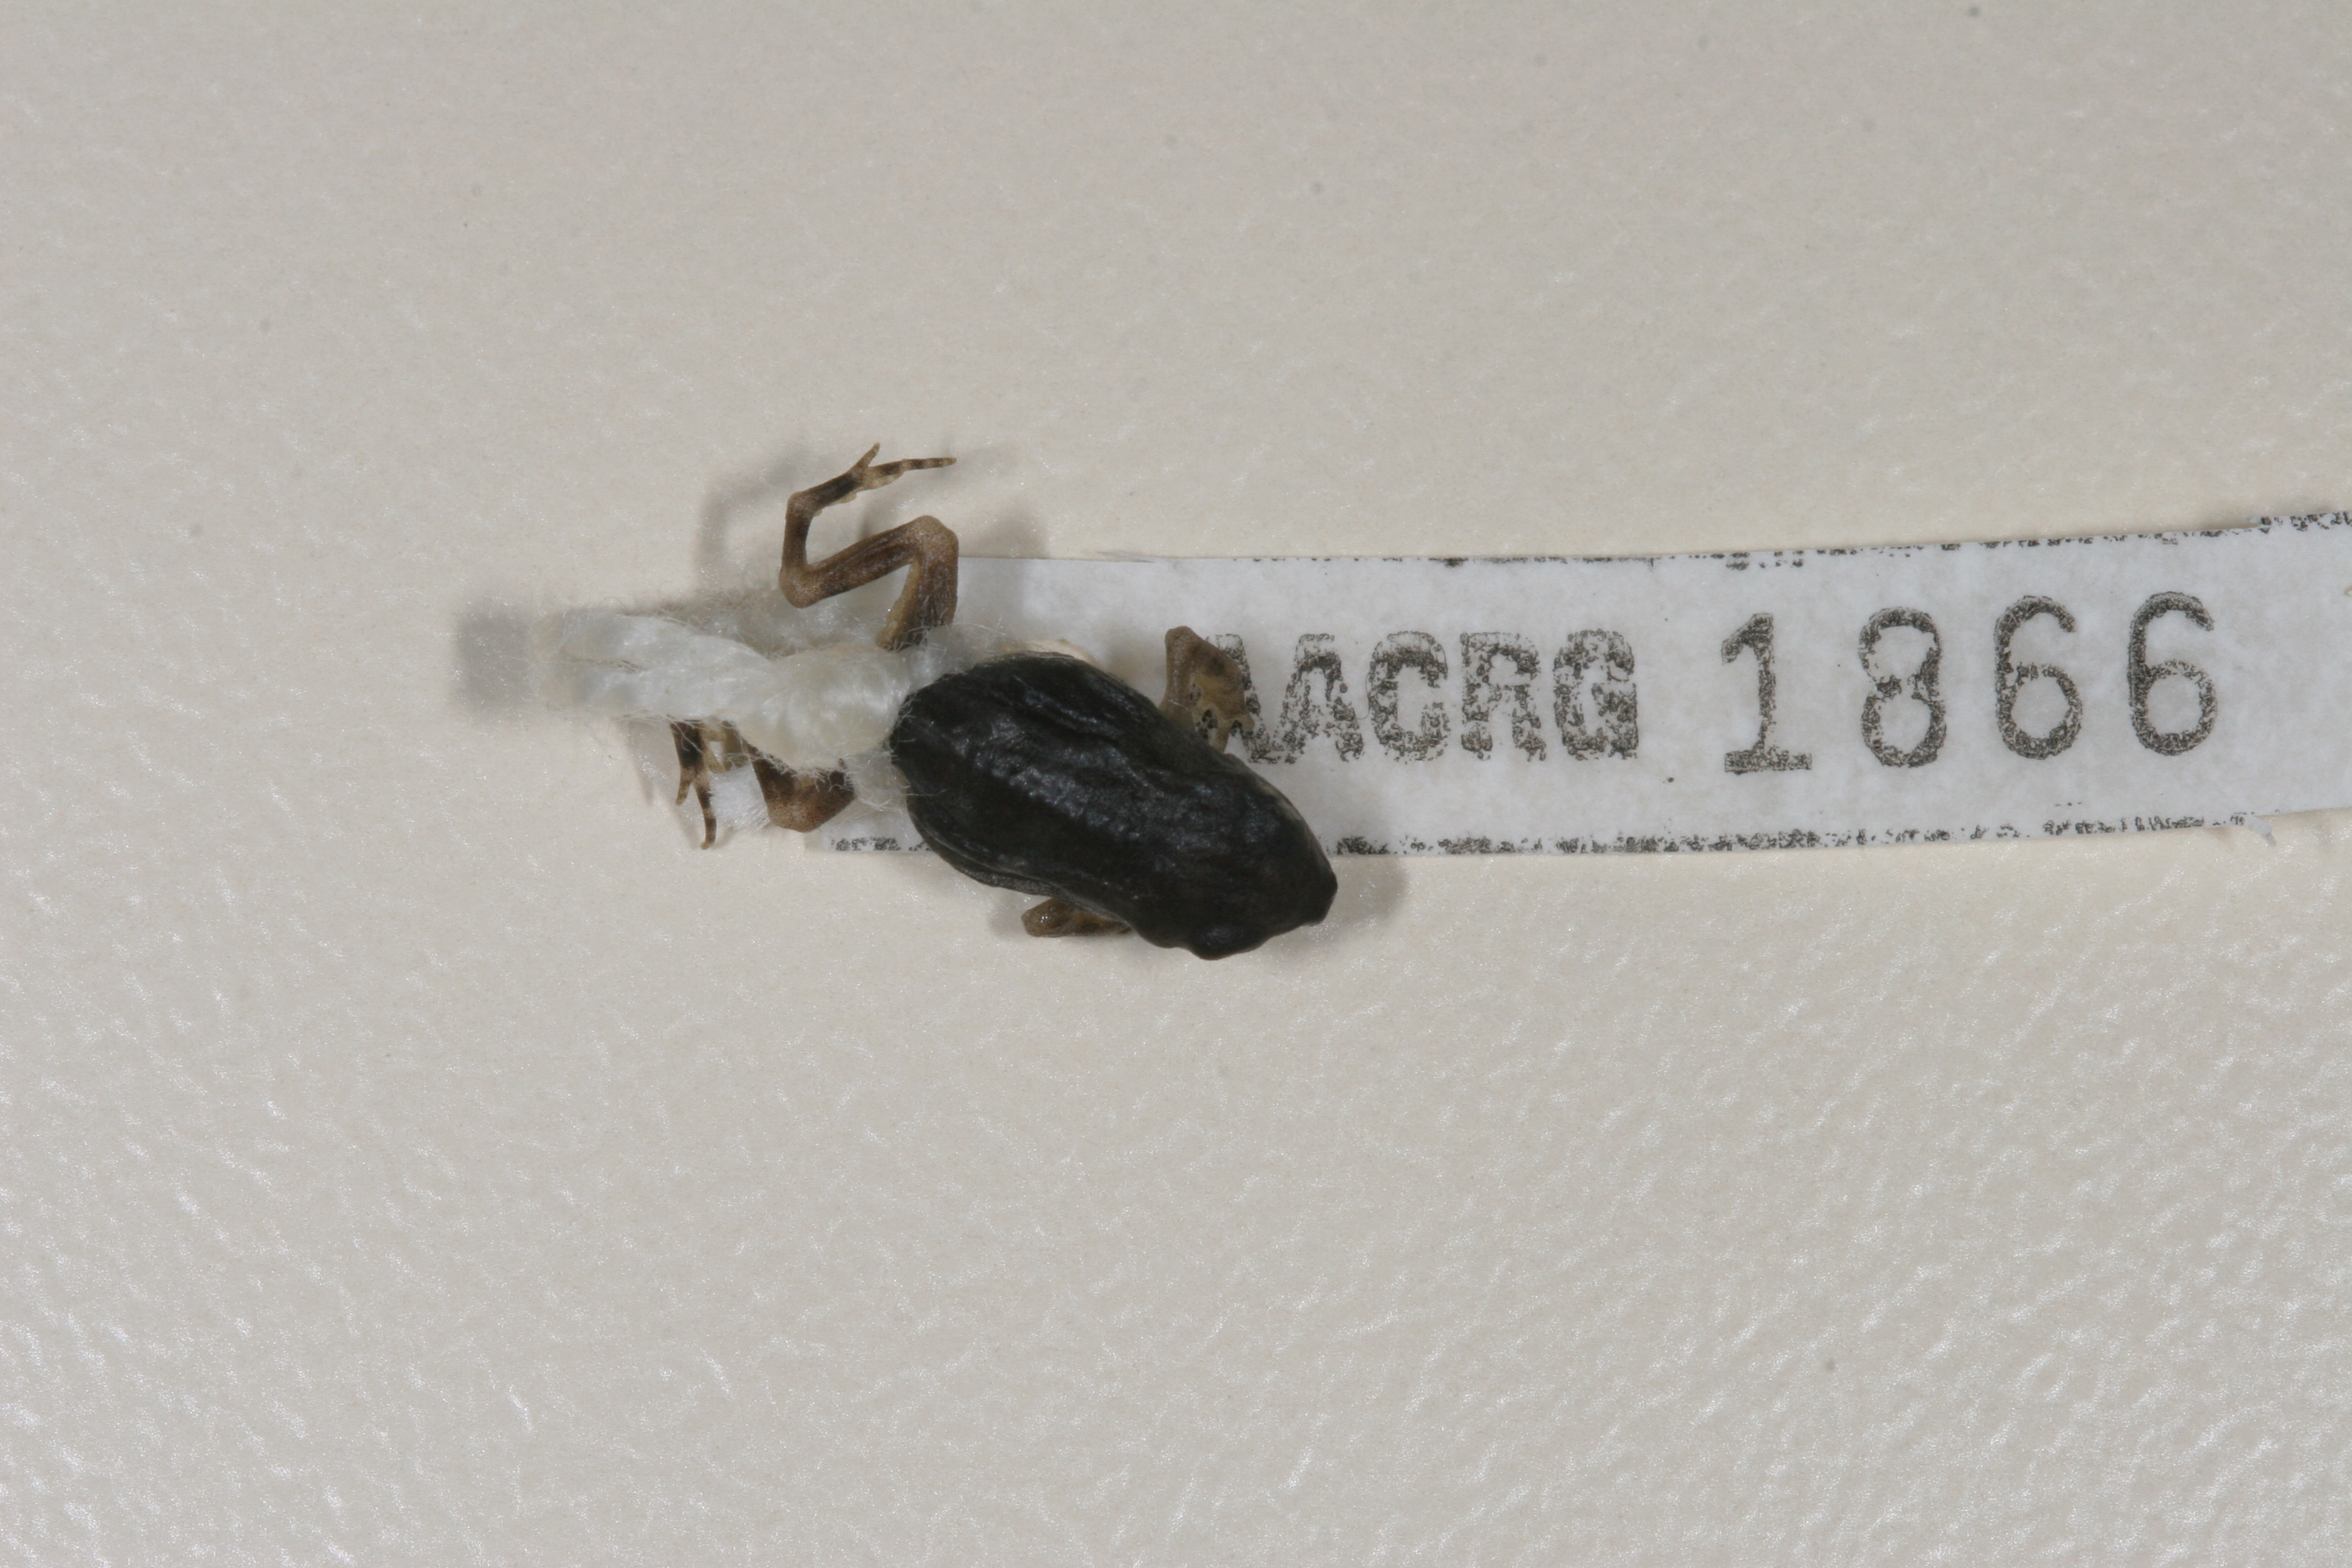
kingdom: Animalia
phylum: Chordata
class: Amphibia
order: Anura
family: Bufonidae
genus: Sclerophrys
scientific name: Sclerophrys gutturalis
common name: African common toad
